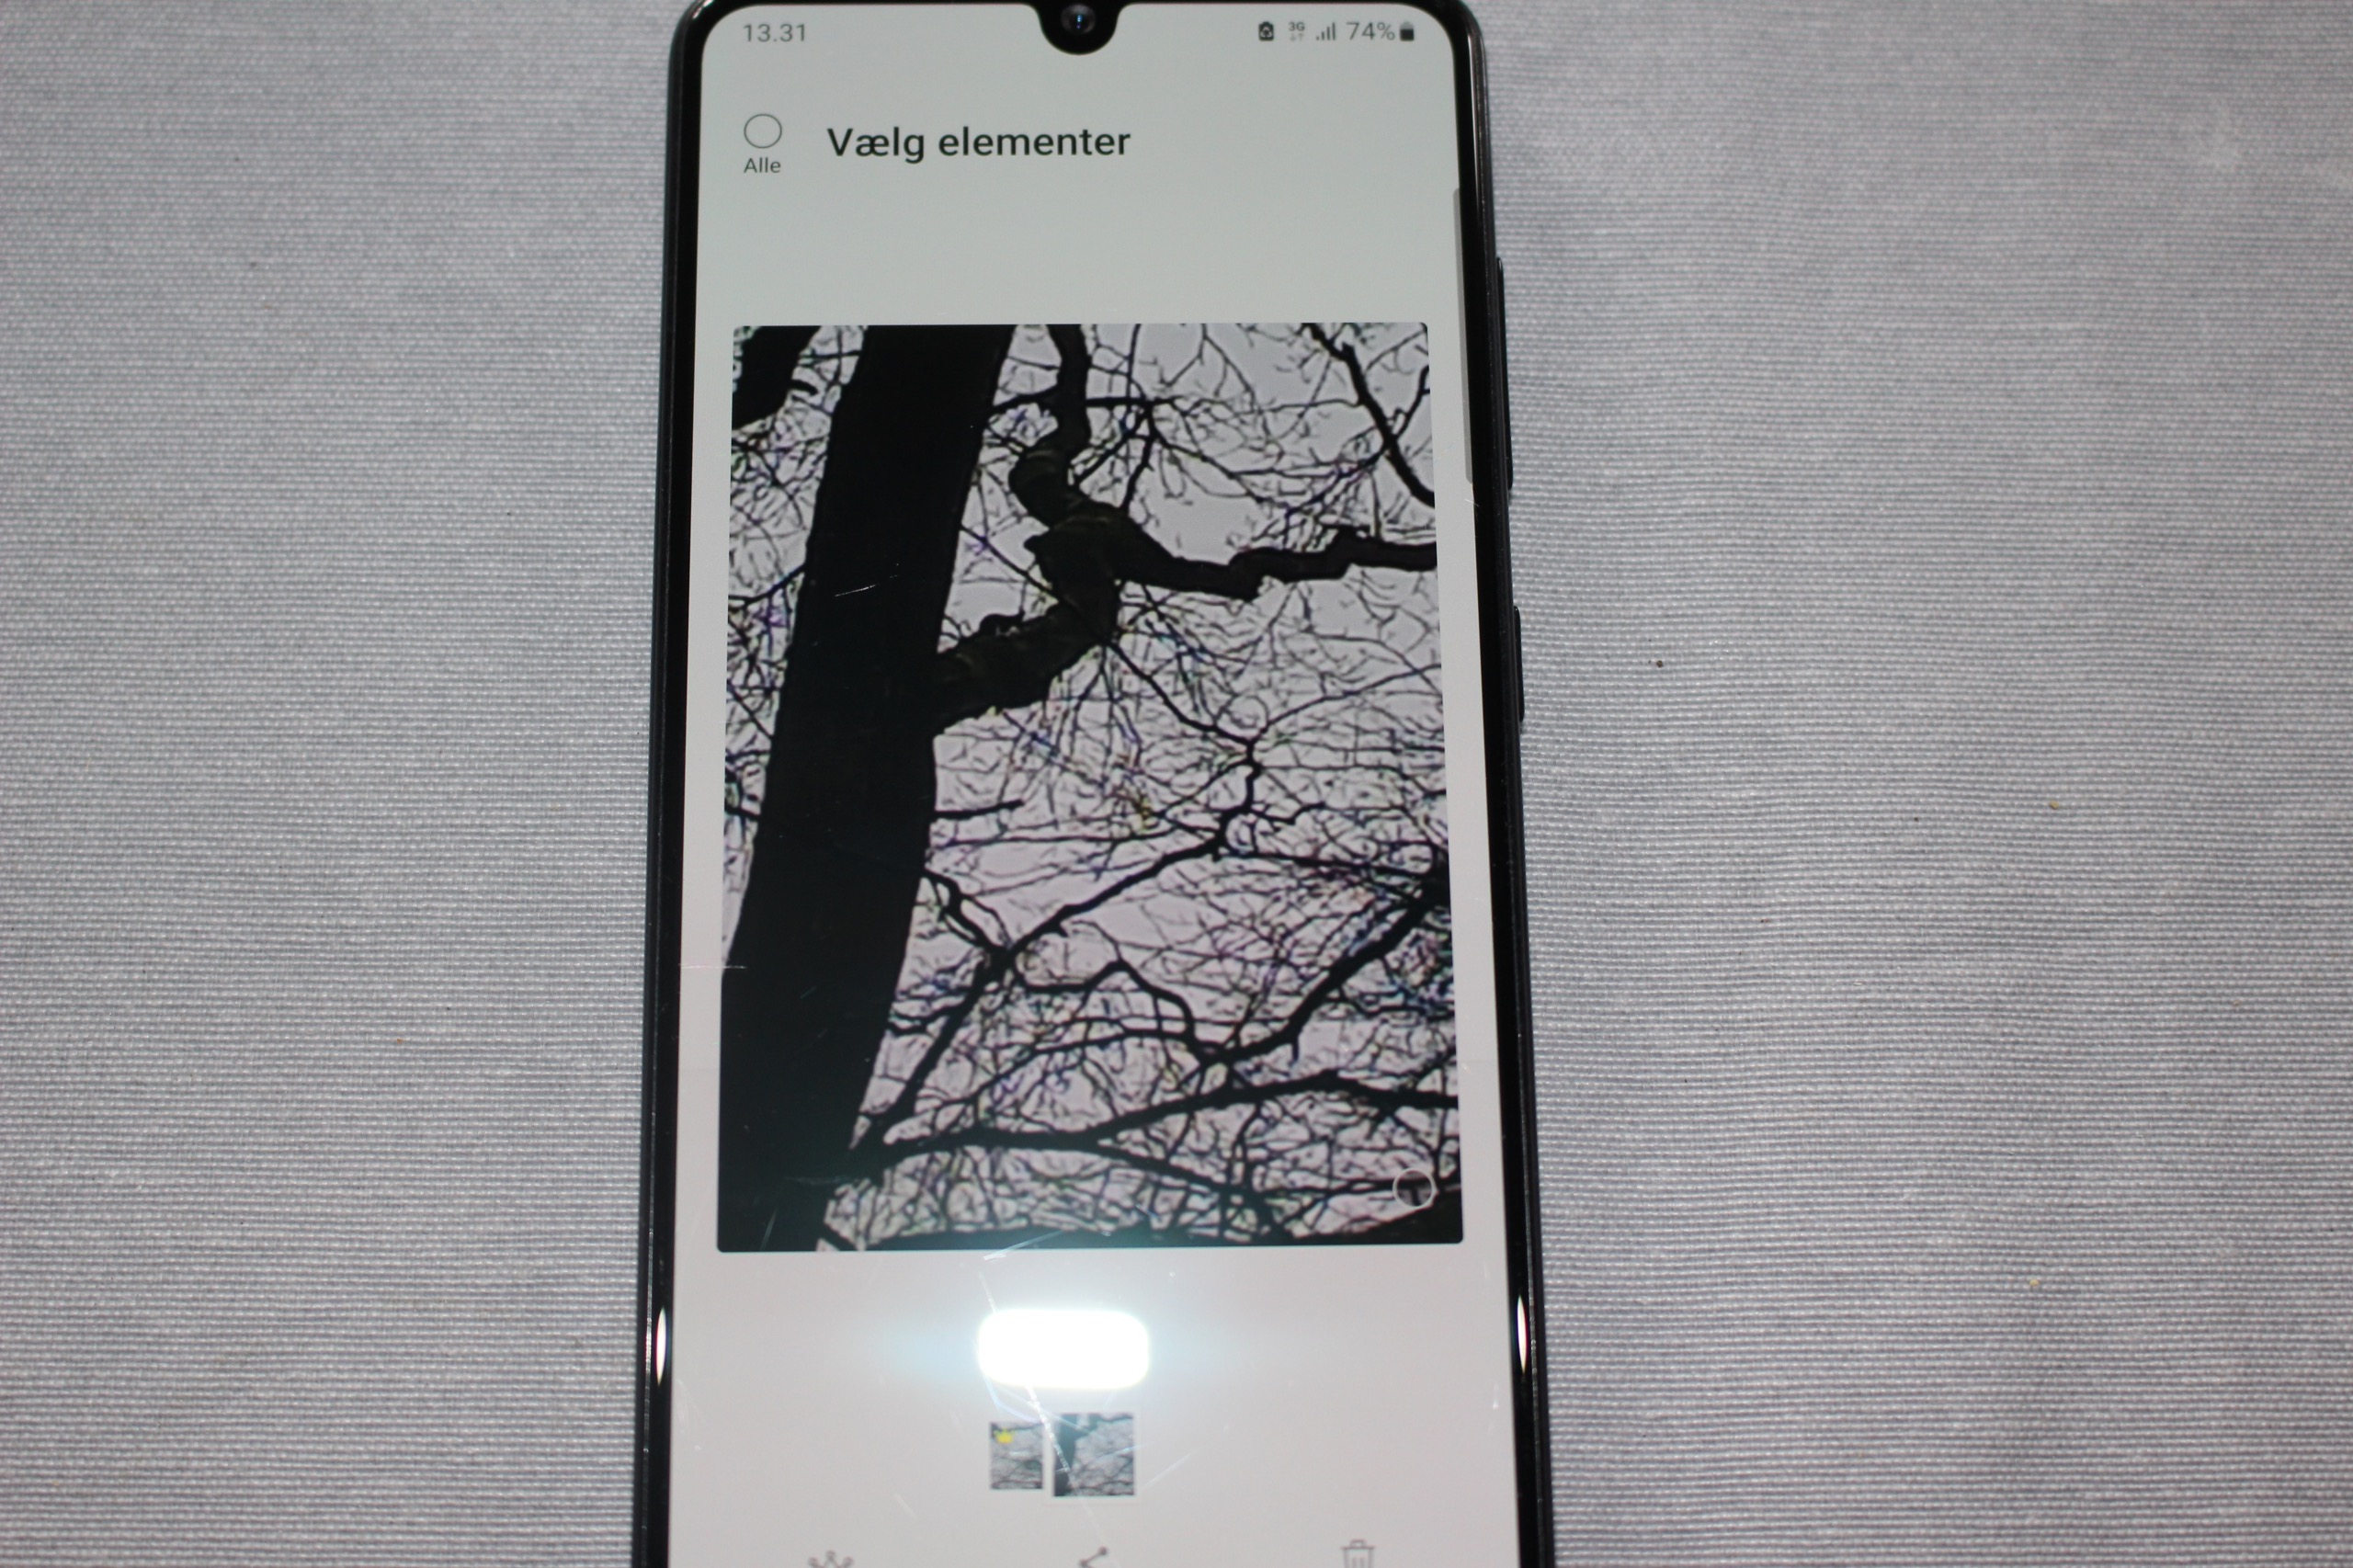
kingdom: Animalia
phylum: Chordata
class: Mammalia
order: Rodentia
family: Sciuridae
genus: Sciurus
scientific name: Sciurus vulgaris
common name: Egern
